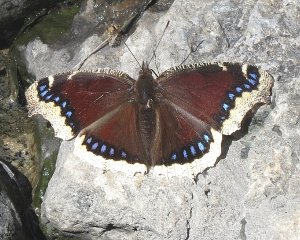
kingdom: Animalia
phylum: Arthropoda
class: Insecta
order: Lepidoptera
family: Nymphalidae
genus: Nymphalis
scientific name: Nymphalis antiopa
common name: Mourning Cloak
